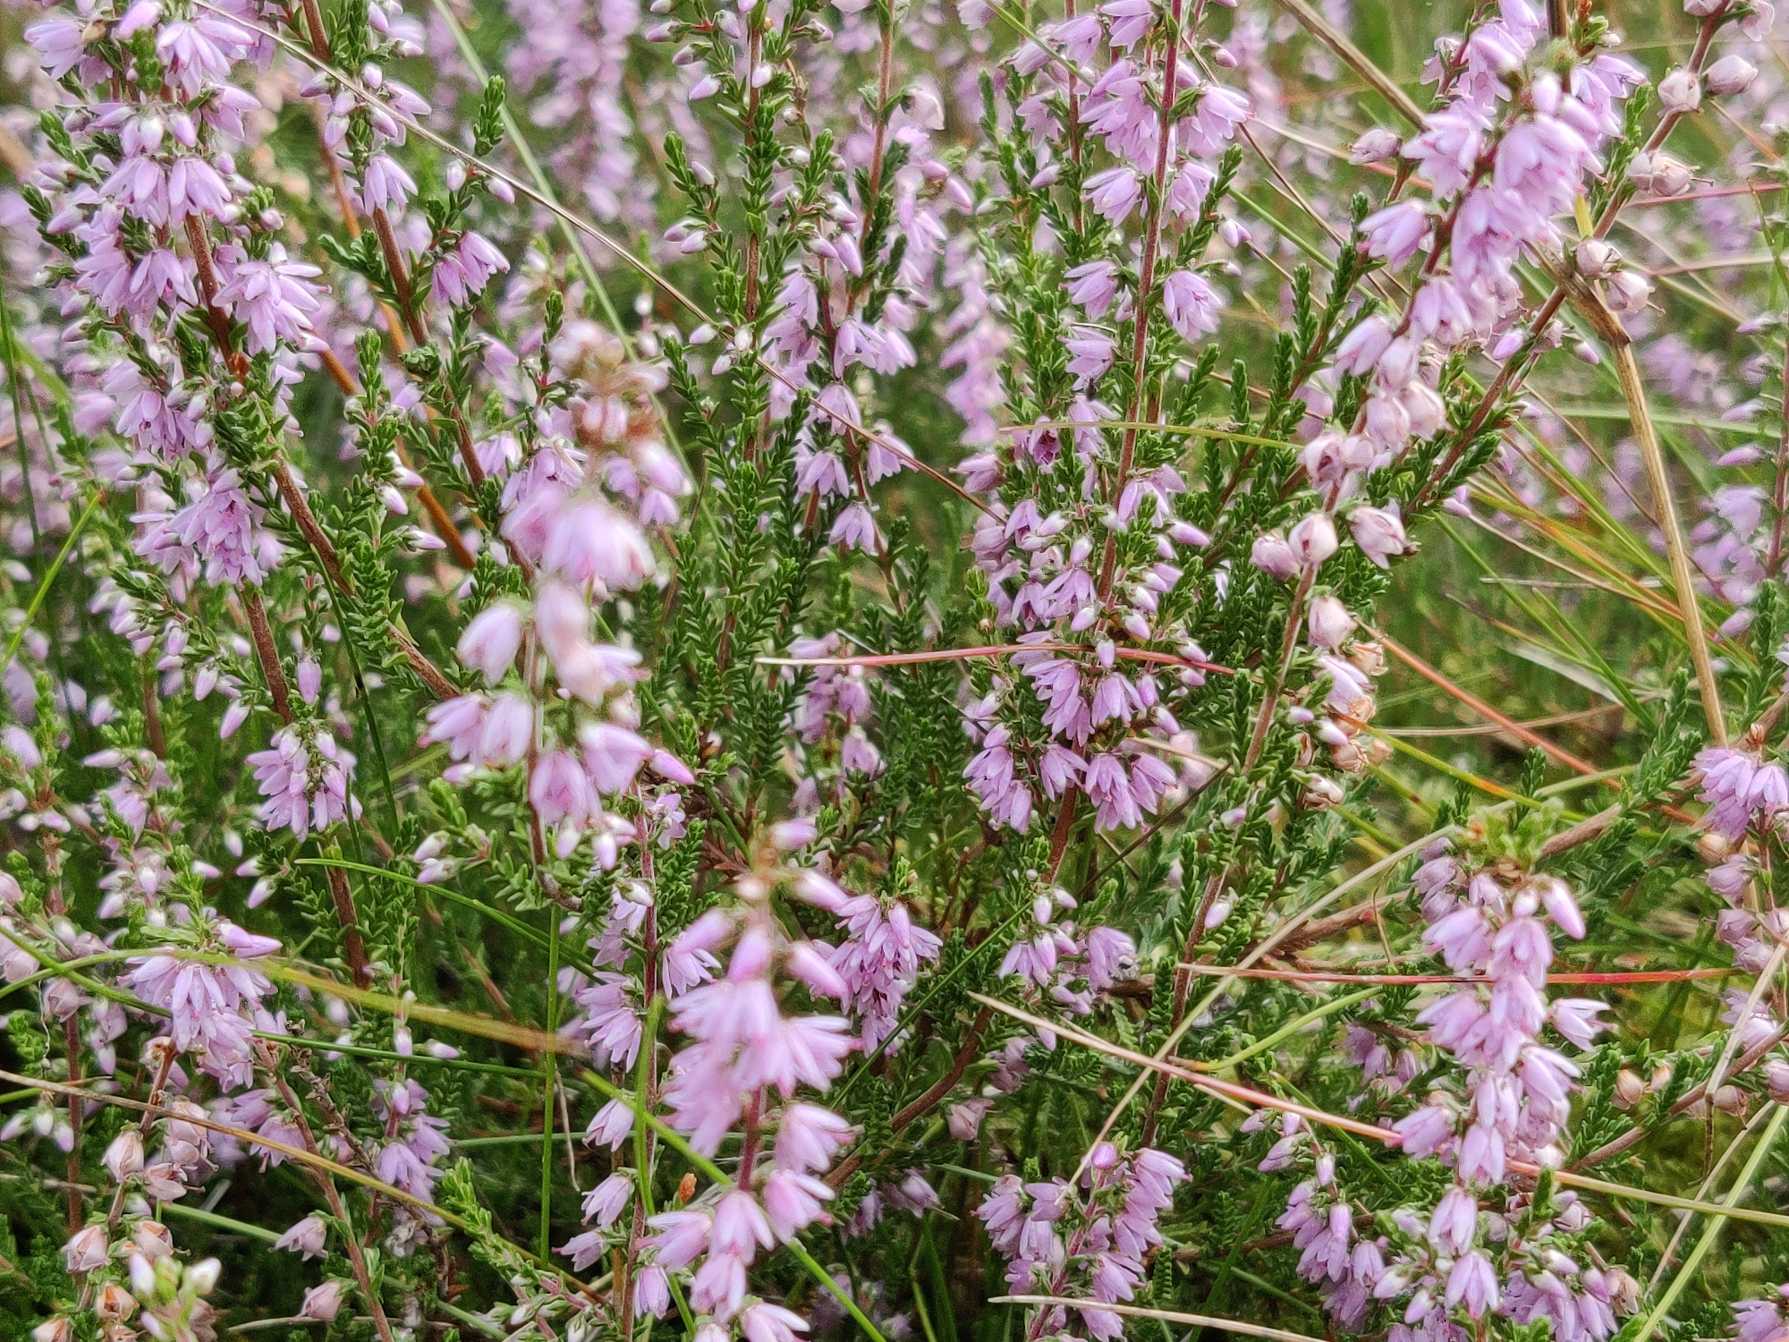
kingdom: Plantae
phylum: Tracheophyta
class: Magnoliopsida
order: Ericales
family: Ericaceae
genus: Calluna
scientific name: Calluna vulgaris
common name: Hedelyng
